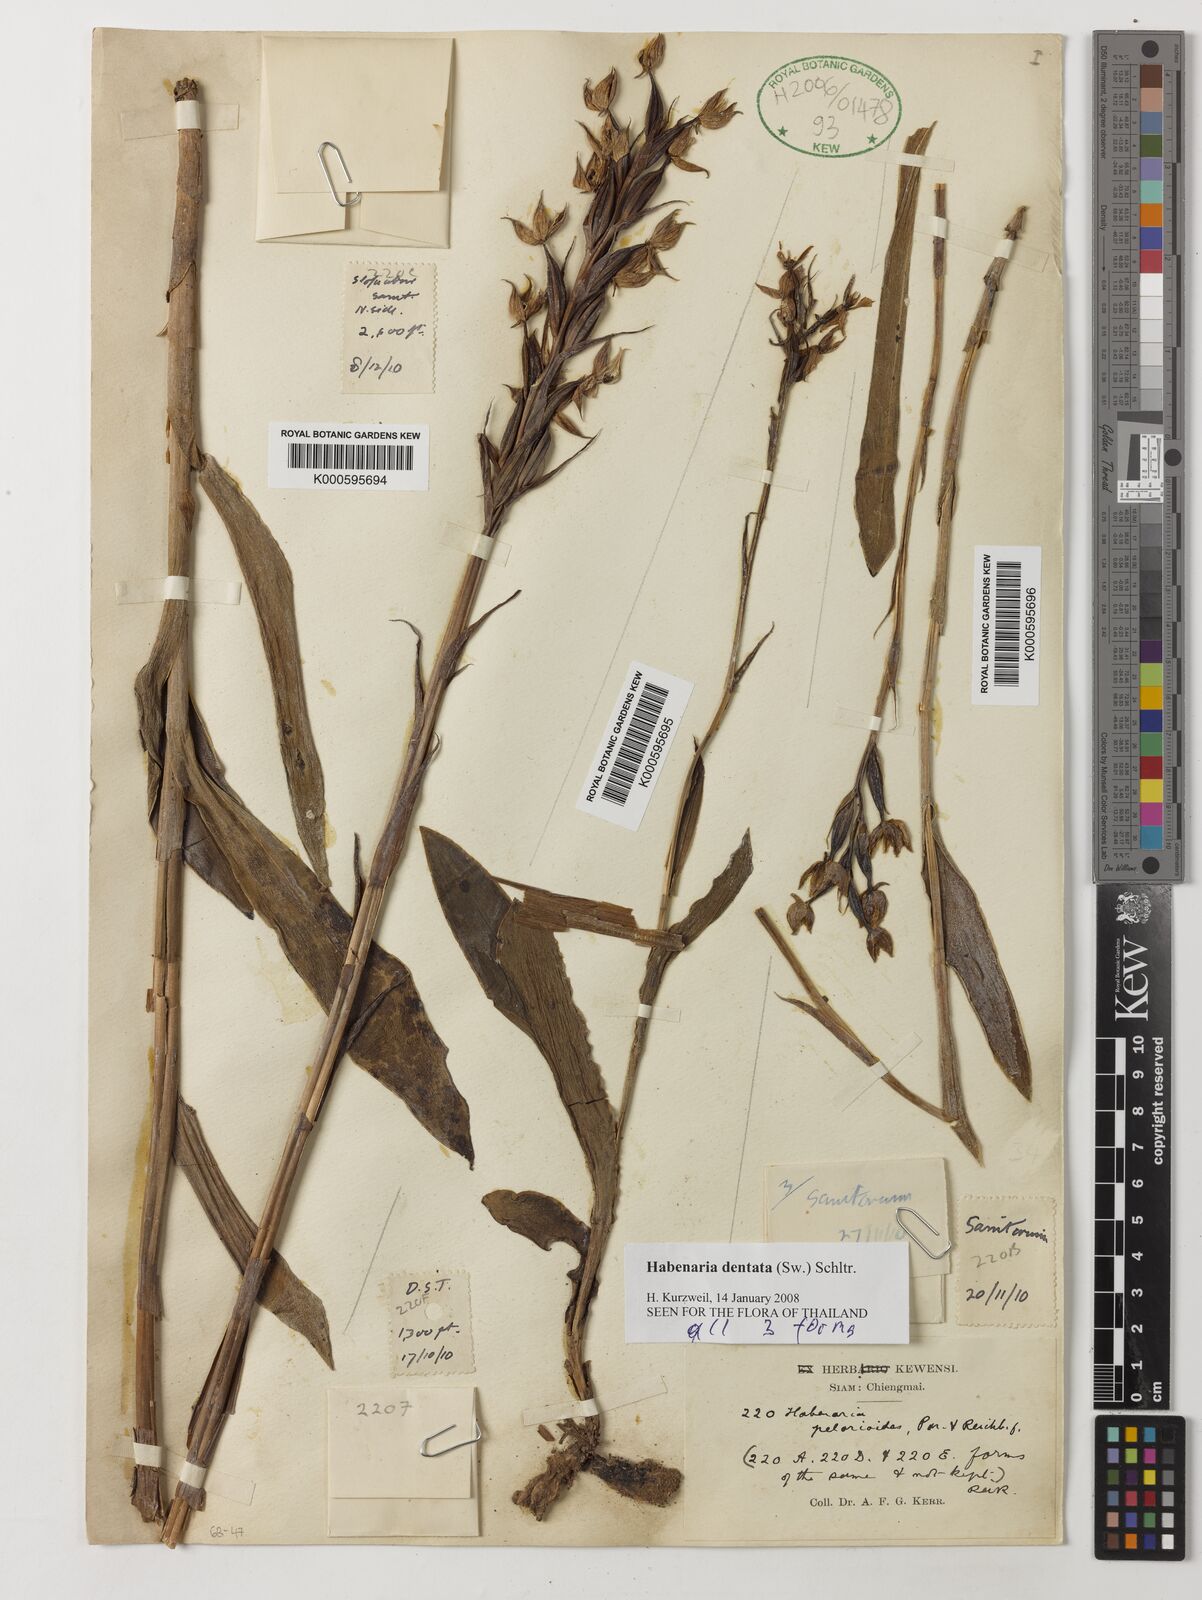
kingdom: Plantae
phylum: Tracheophyta
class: Liliopsida
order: Asparagales
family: Orchidaceae
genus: Habenaria
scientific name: Habenaria dentata
